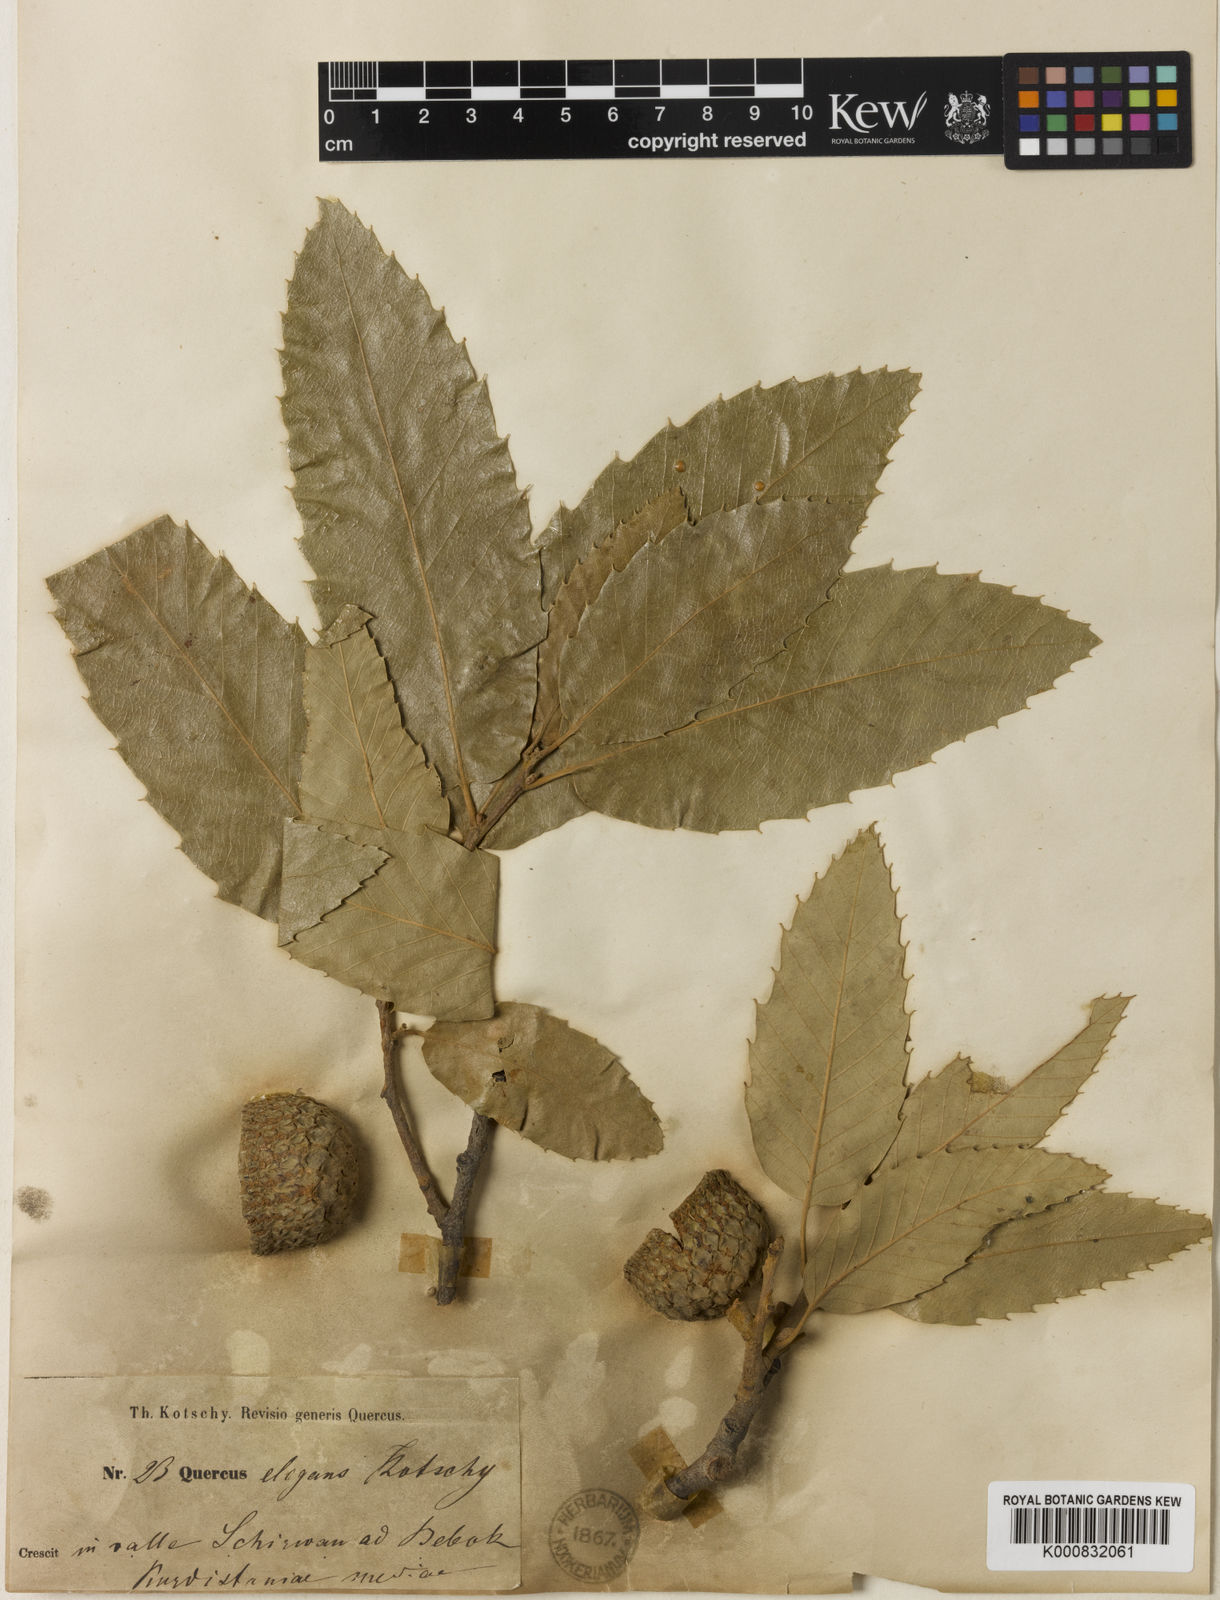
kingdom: Plantae
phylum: Tracheophyta
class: Magnoliopsida
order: Fagales
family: Fagaceae
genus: Lithocarpus
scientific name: Lithocarpus elegans
